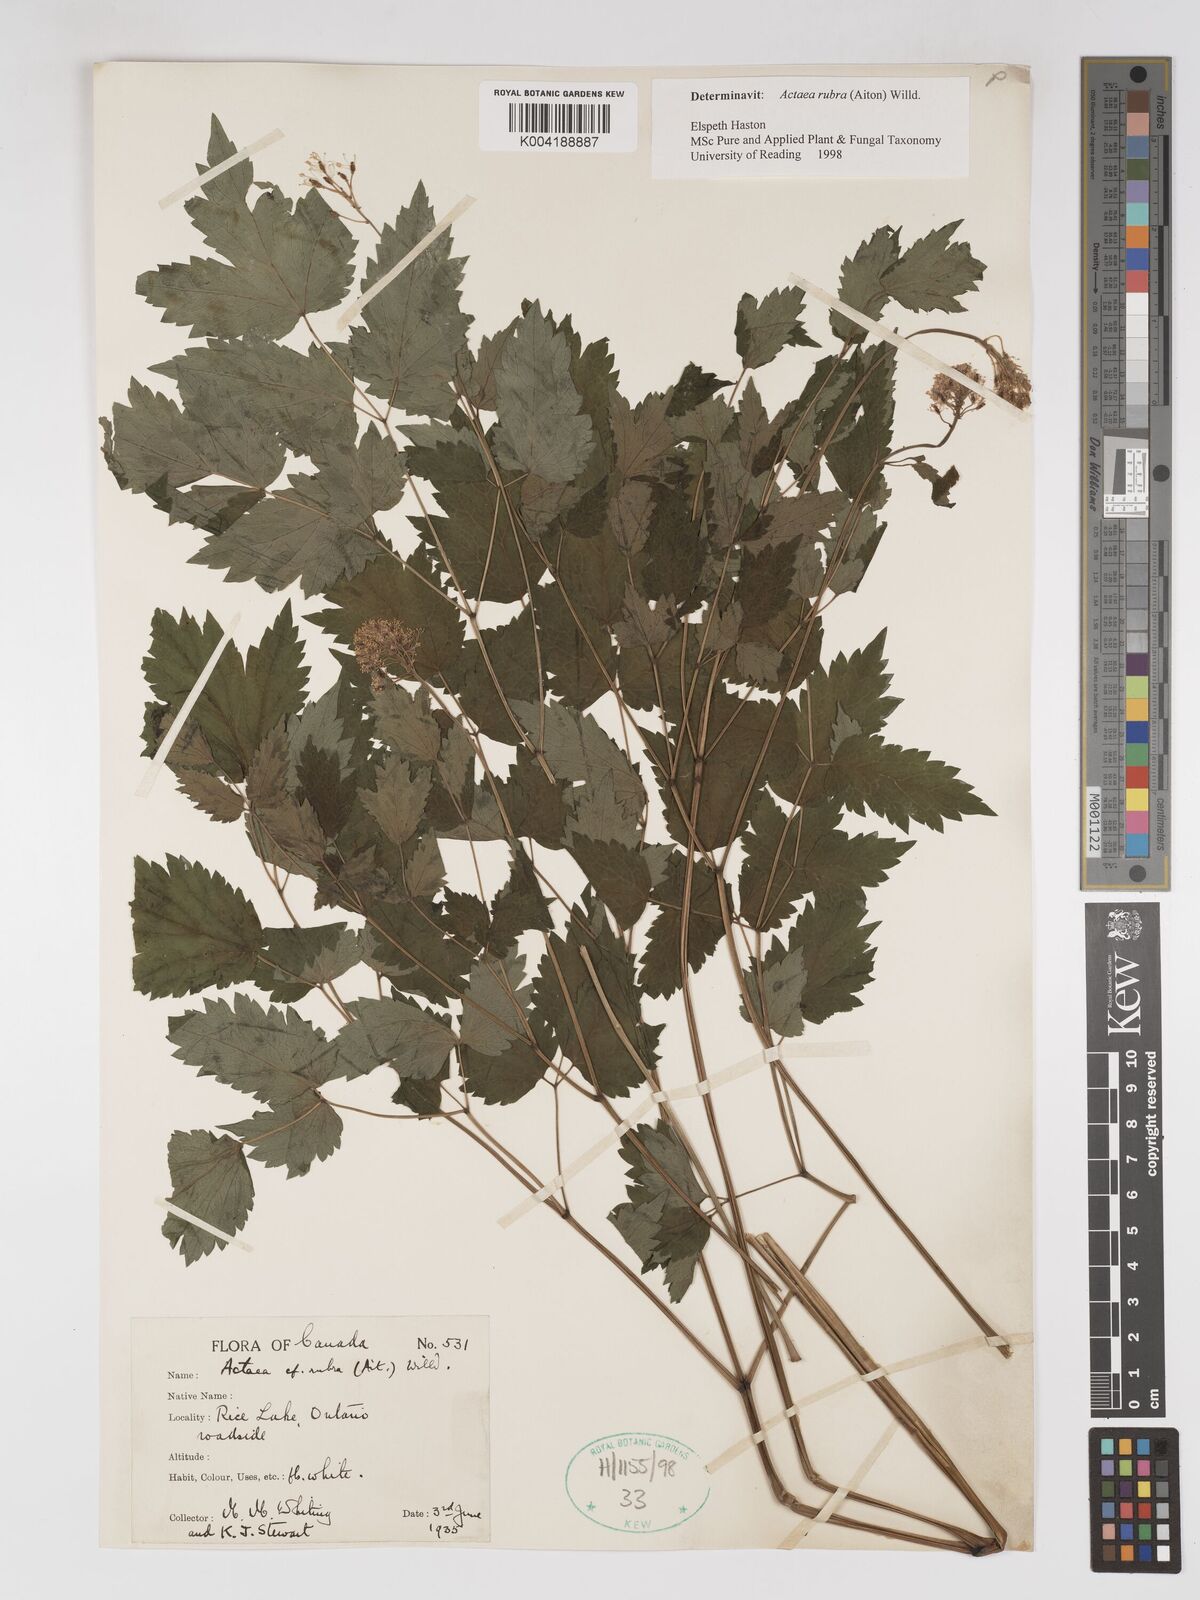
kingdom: Plantae
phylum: Tracheophyta
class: Magnoliopsida
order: Ranunculales
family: Ranunculaceae
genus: Actaea
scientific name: Actaea spicata
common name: Baneberry
